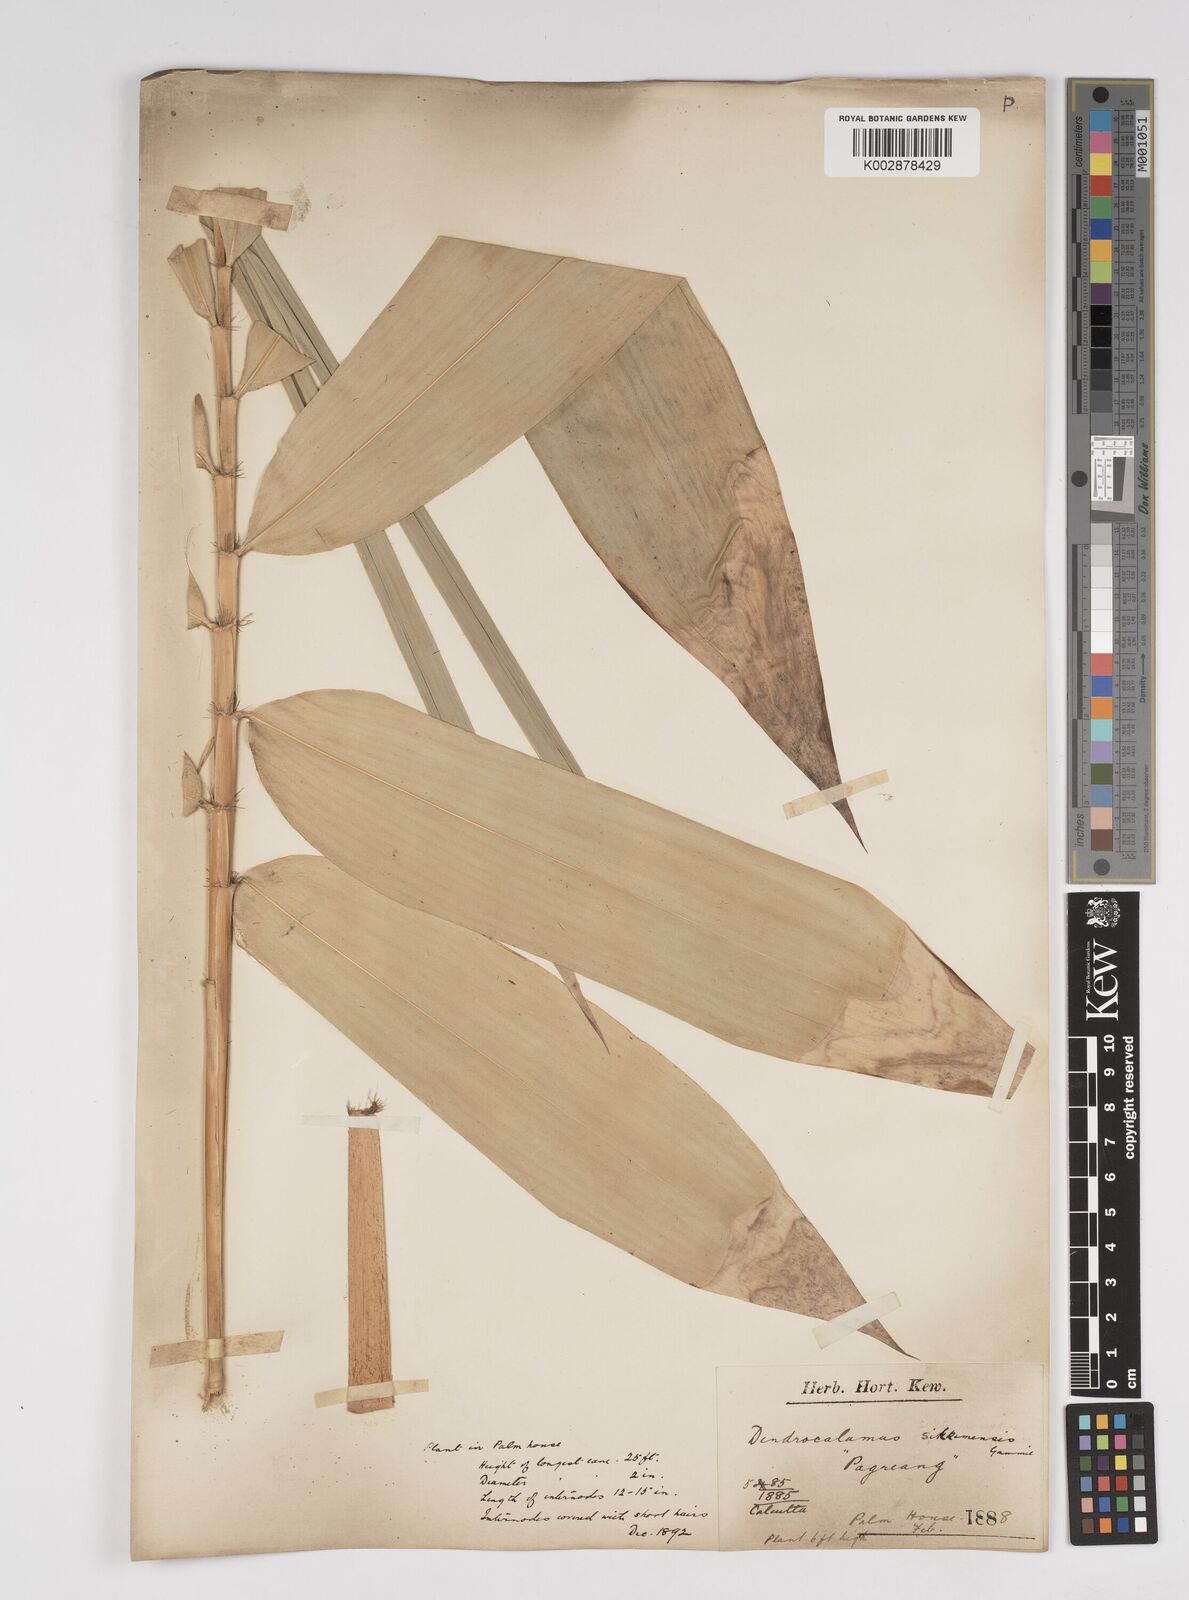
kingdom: Plantae
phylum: Tracheophyta
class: Liliopsida
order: Poales
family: Poaceae
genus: Dendrocalamus
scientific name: Dendrocalamus sikkimensis
